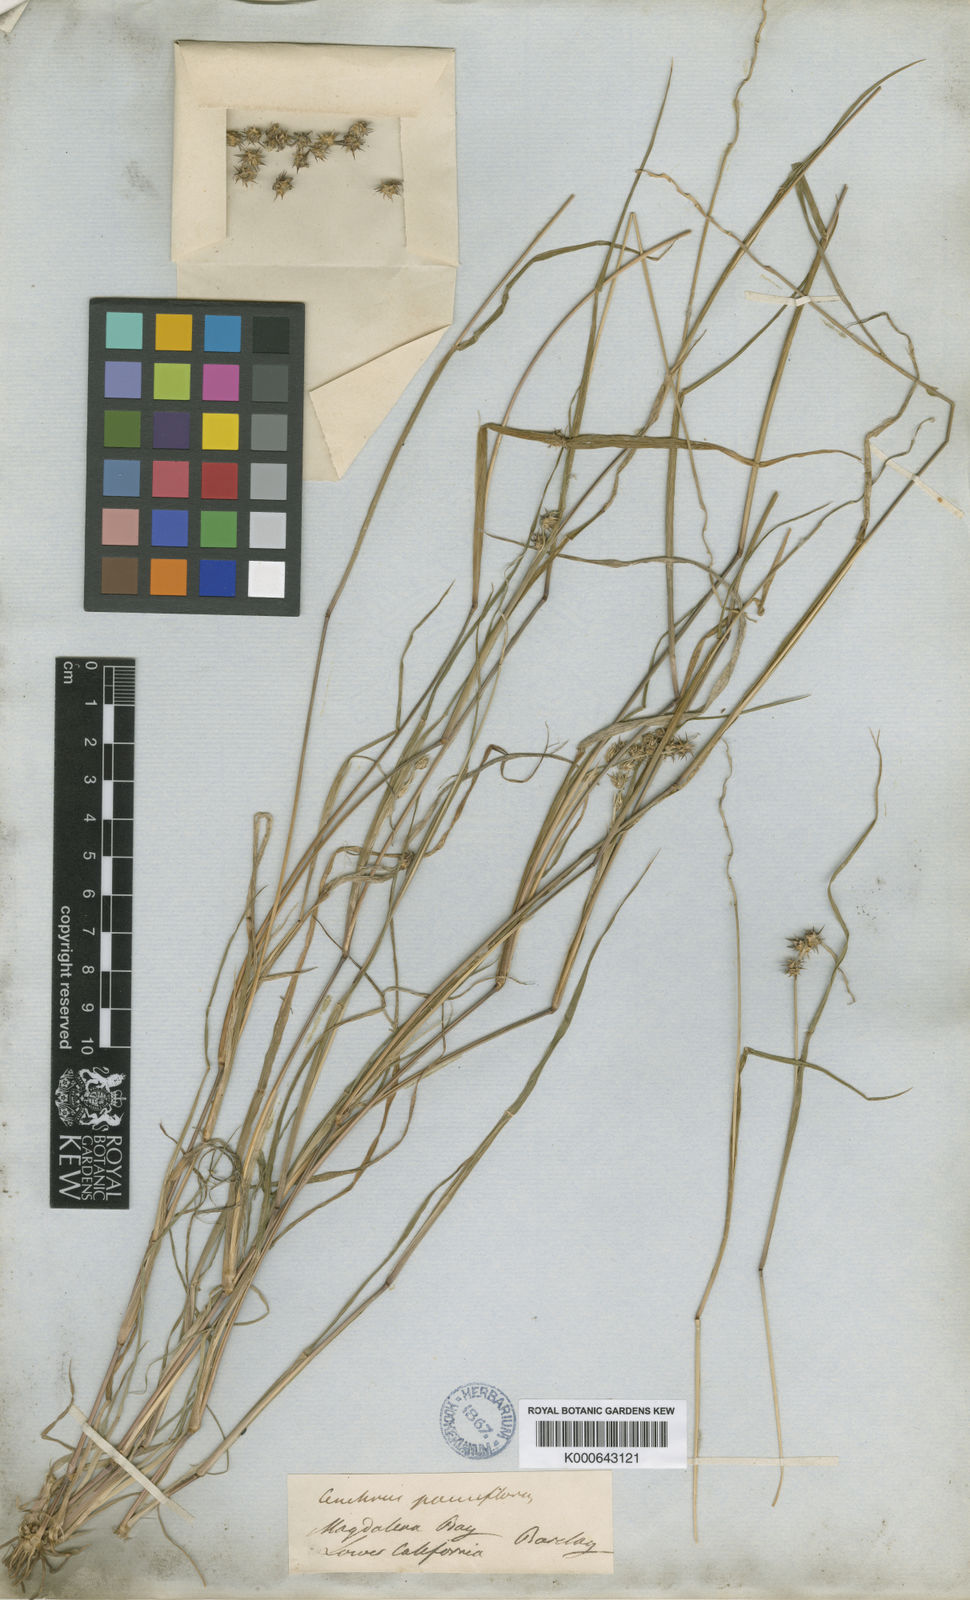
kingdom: Plantae
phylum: Tracheophyta
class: Liliopsida
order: Poales
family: Poaceae
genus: Cenchrus
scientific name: Cenchrus spinifex
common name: Coast sandbur
